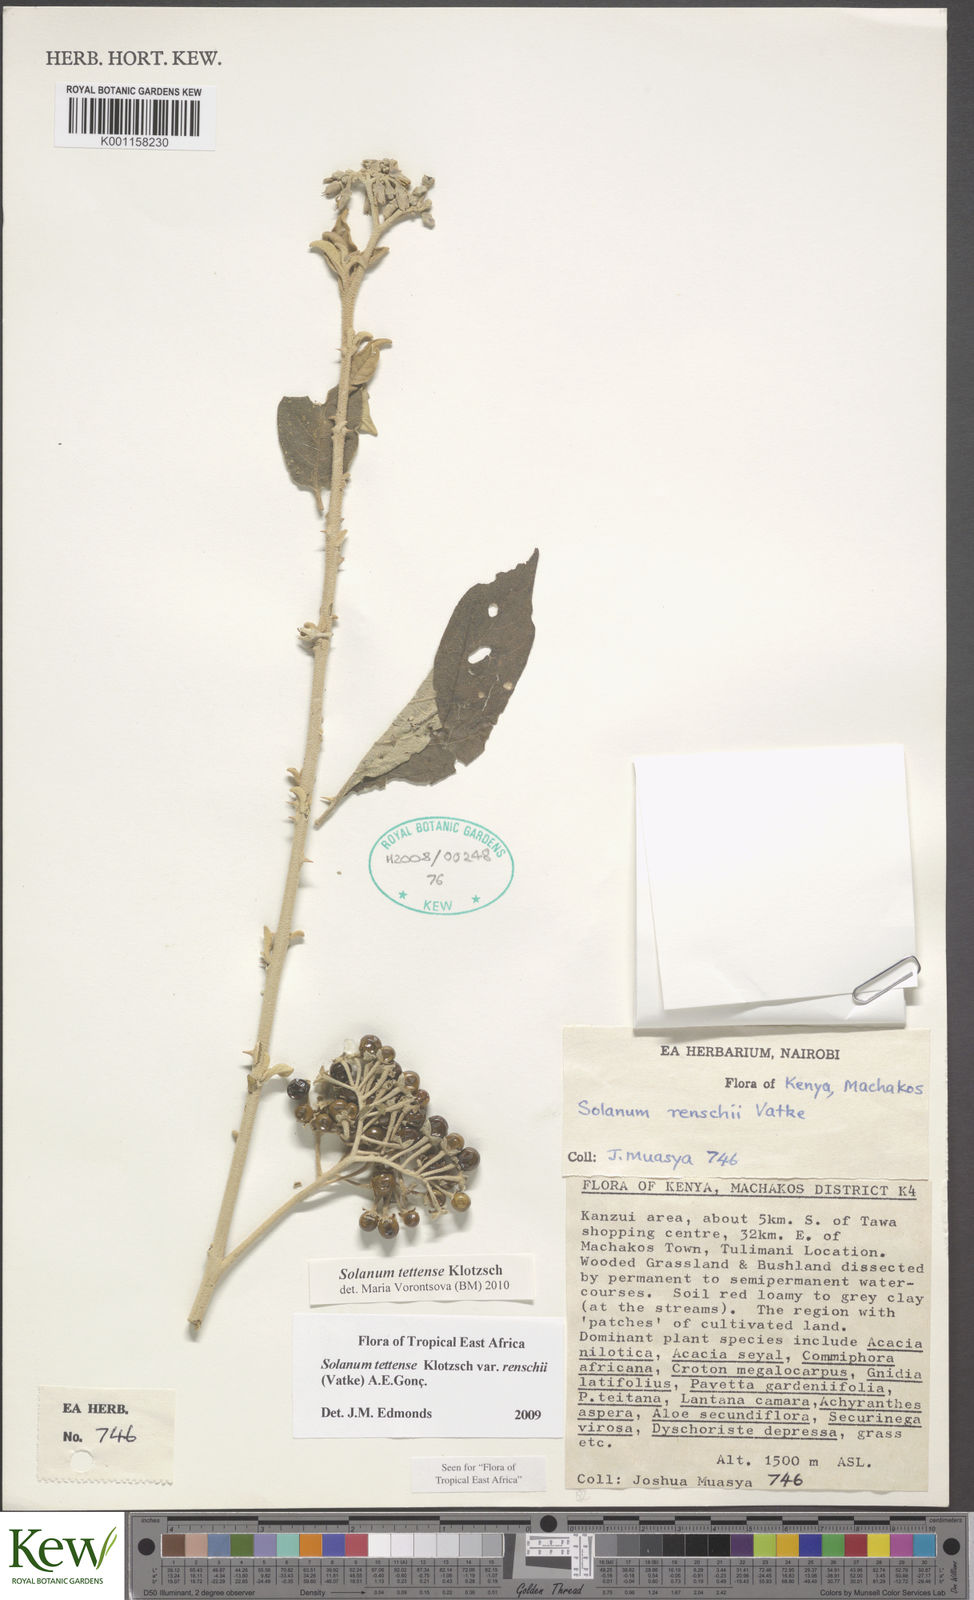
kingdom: Plantae
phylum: Tracheophyta
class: Magnoliopsida
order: Solanales
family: Solanaceae
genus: Solanum
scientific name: Solanum tettense
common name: Mozambique bitter apple
